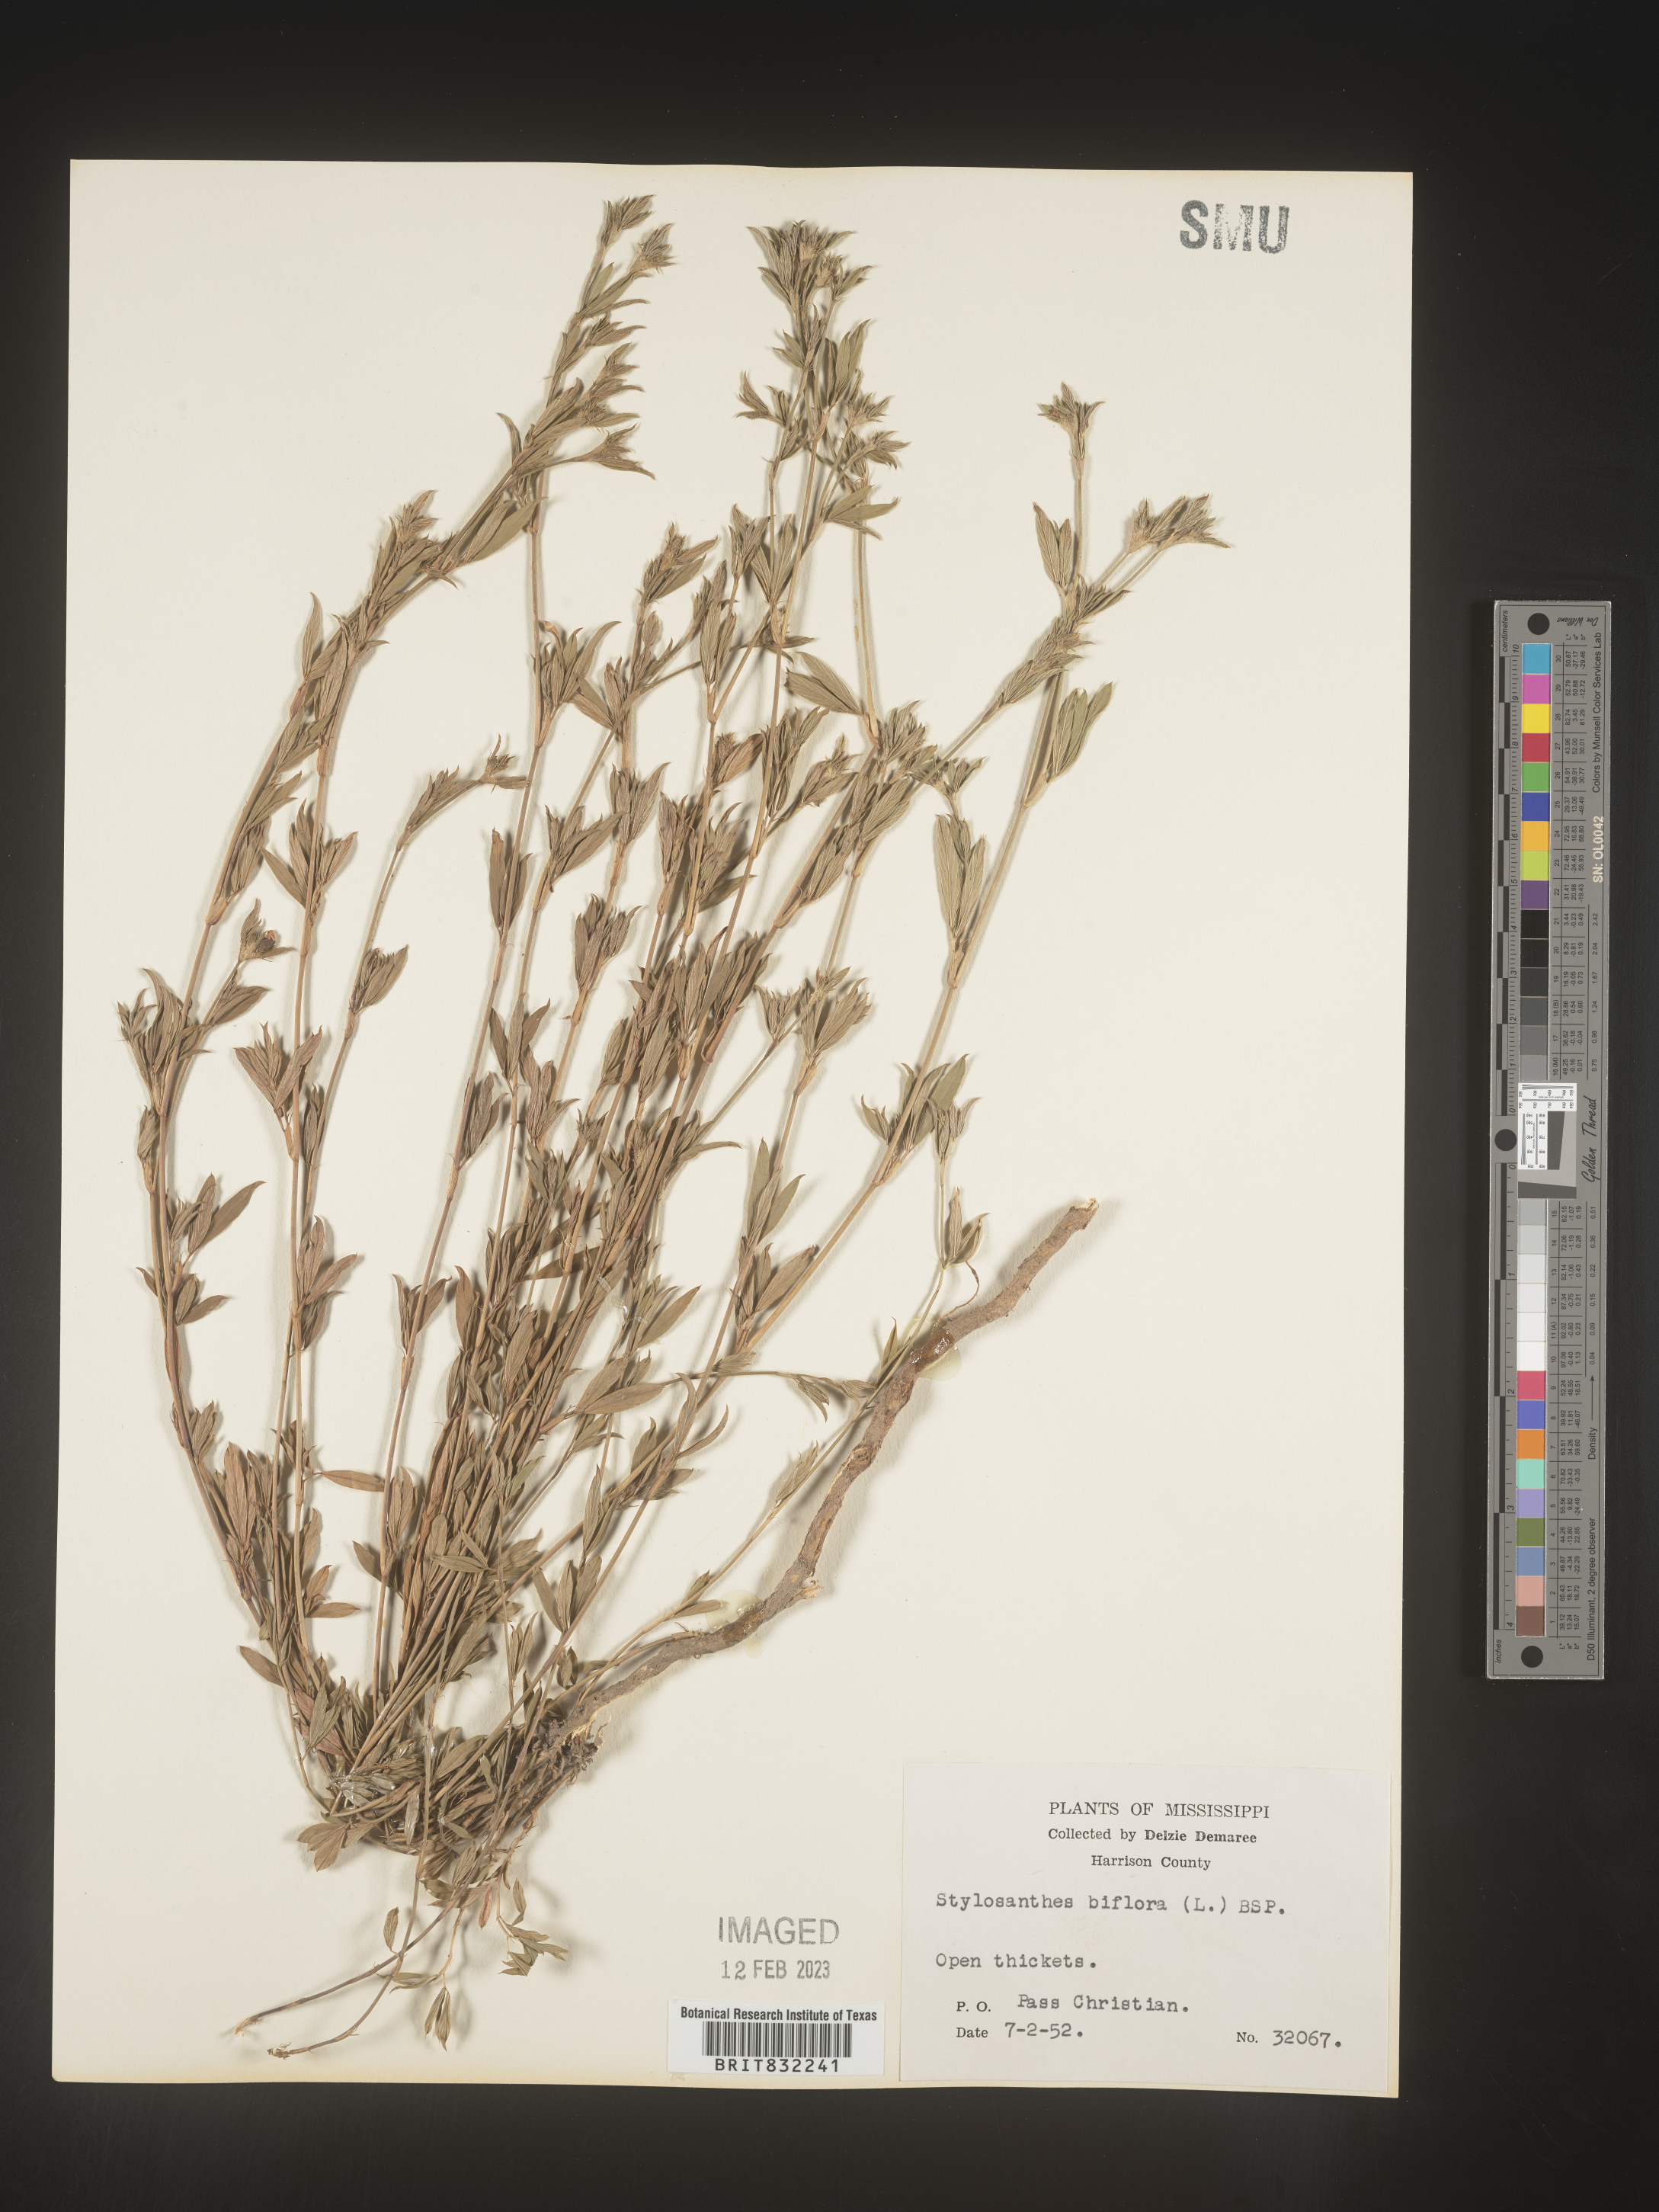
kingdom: Plantae
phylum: Tracheophyta
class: Magnoliopsida
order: Fabales
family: Fabaceae
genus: Stylosanthes
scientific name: Stylosanthes biflora
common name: Two-flower pencil-flower
